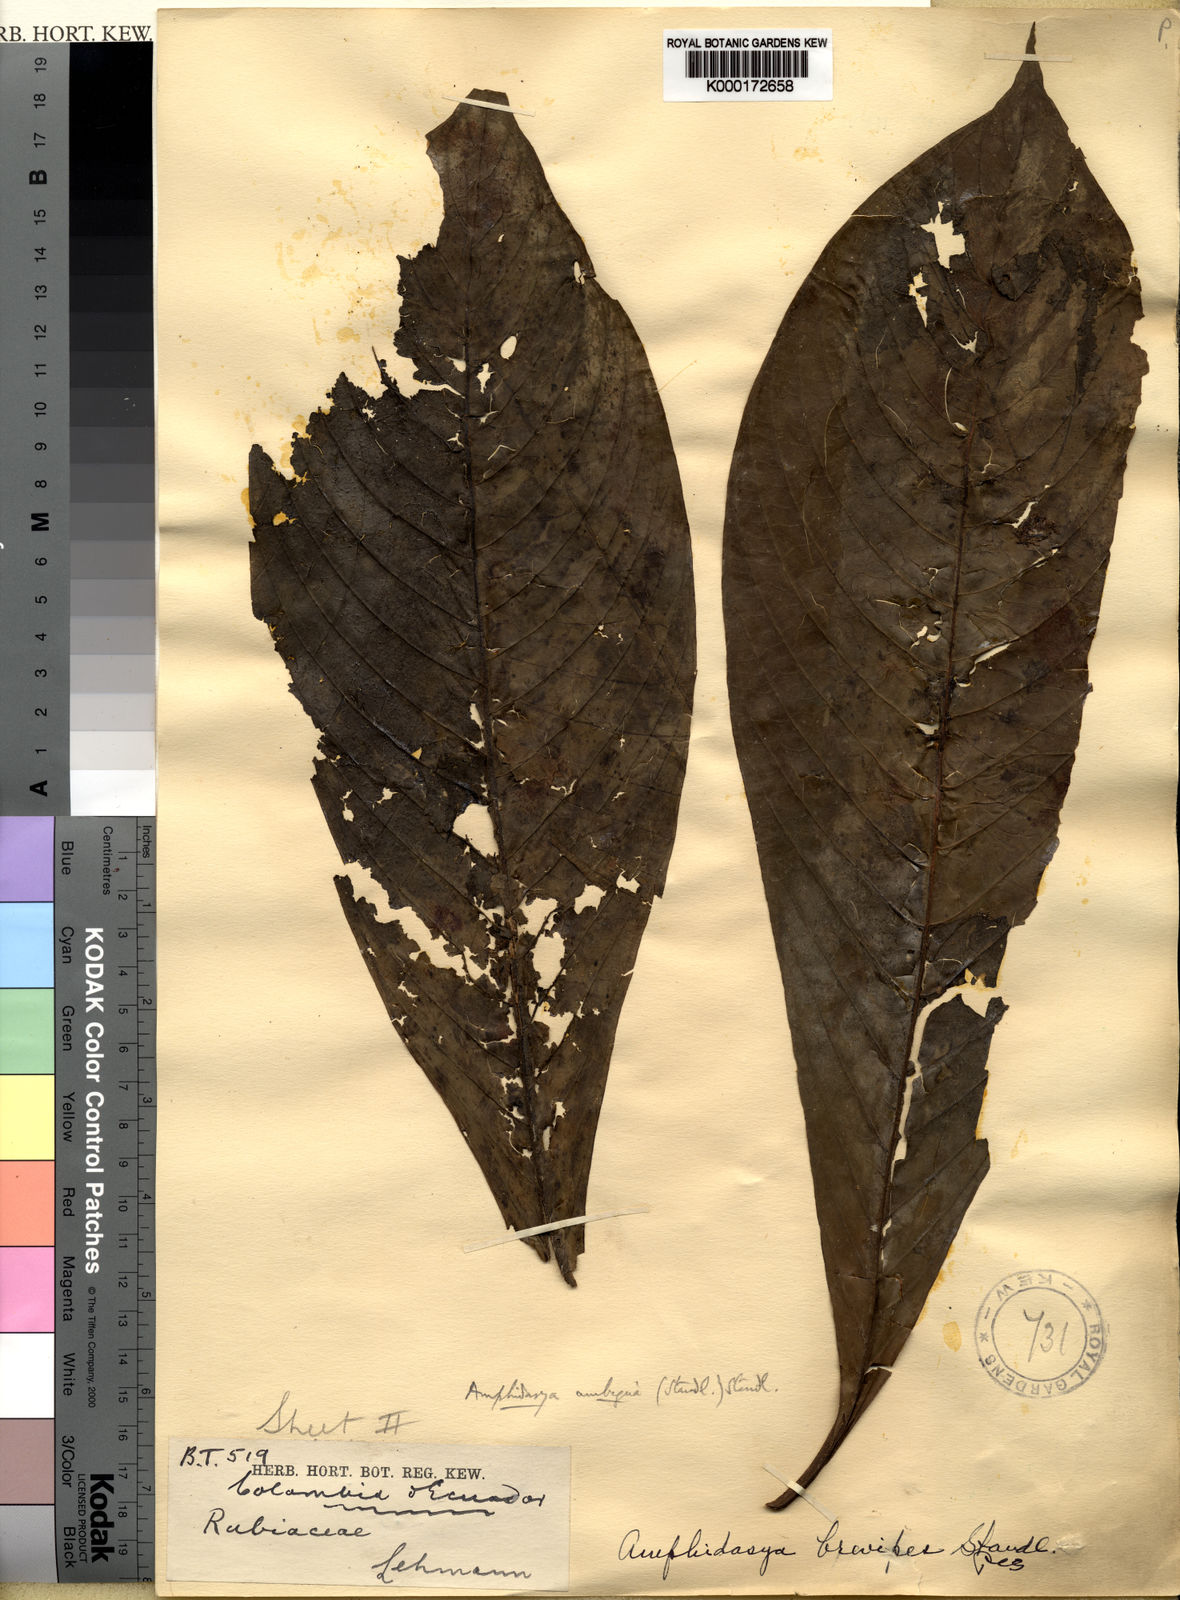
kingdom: Plantae
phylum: Tracheophyta
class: Magnoliopsida
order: Gentianales
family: Rubiaceae
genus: Amphidasya
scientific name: Amphidasya ambigua
